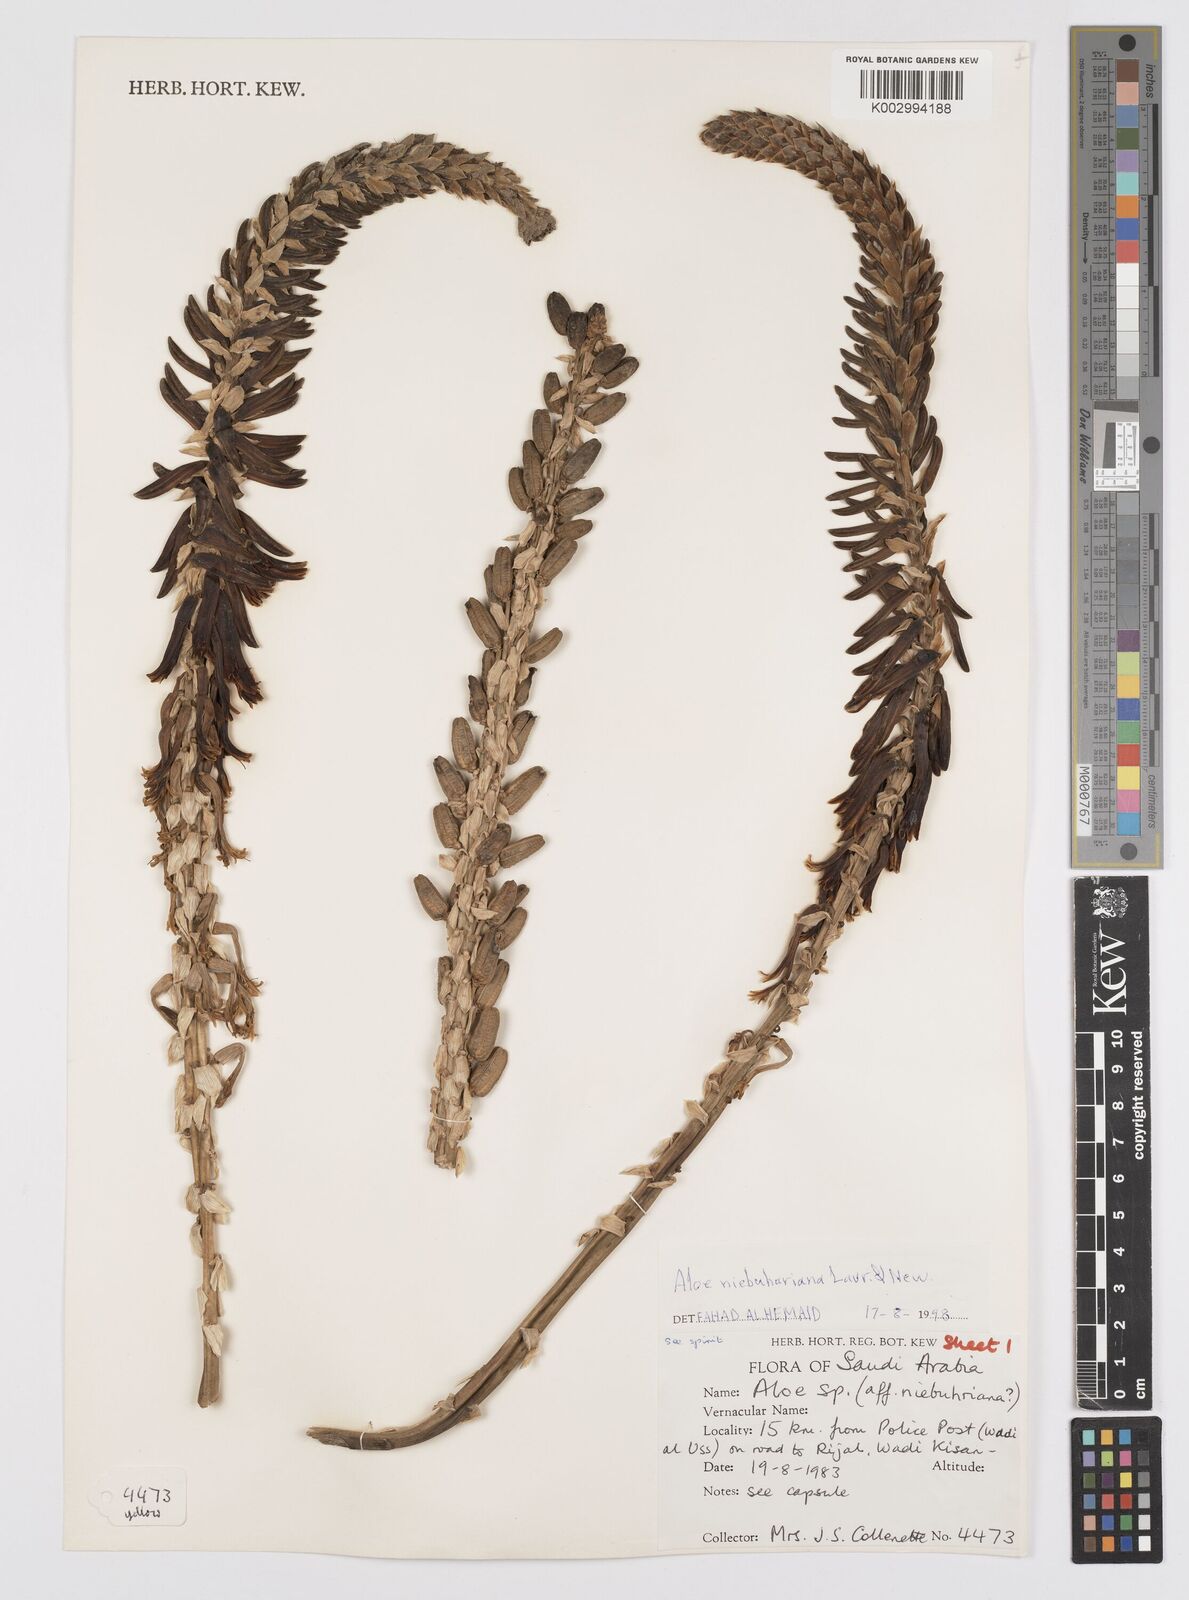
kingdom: Plantae
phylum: Tracheophyta
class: Liliopsida
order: Asparagales
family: Asphodelaceae
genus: Aloe
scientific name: Aloe niebuhriana
